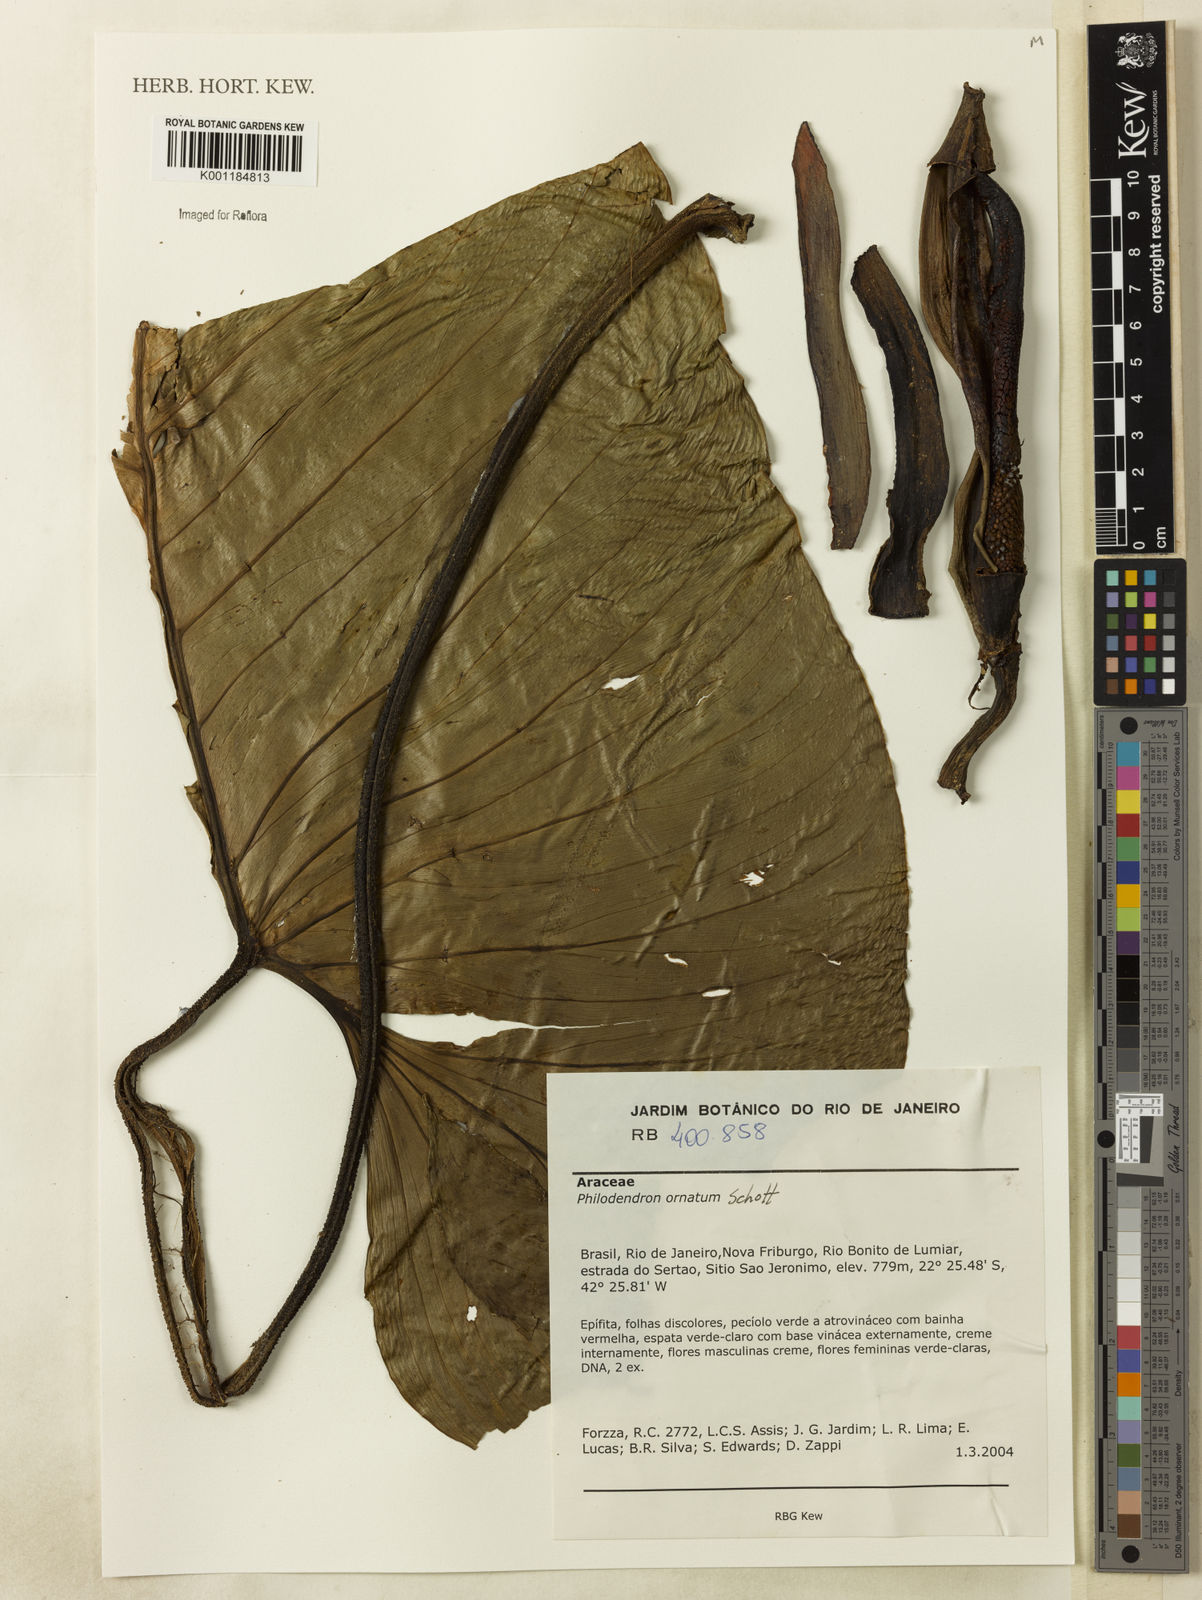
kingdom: Plantae
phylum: Tracheophyta
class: Liliopsida
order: Alismatales
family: Araceae
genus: Philodendron
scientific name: Philodendron ornatum
